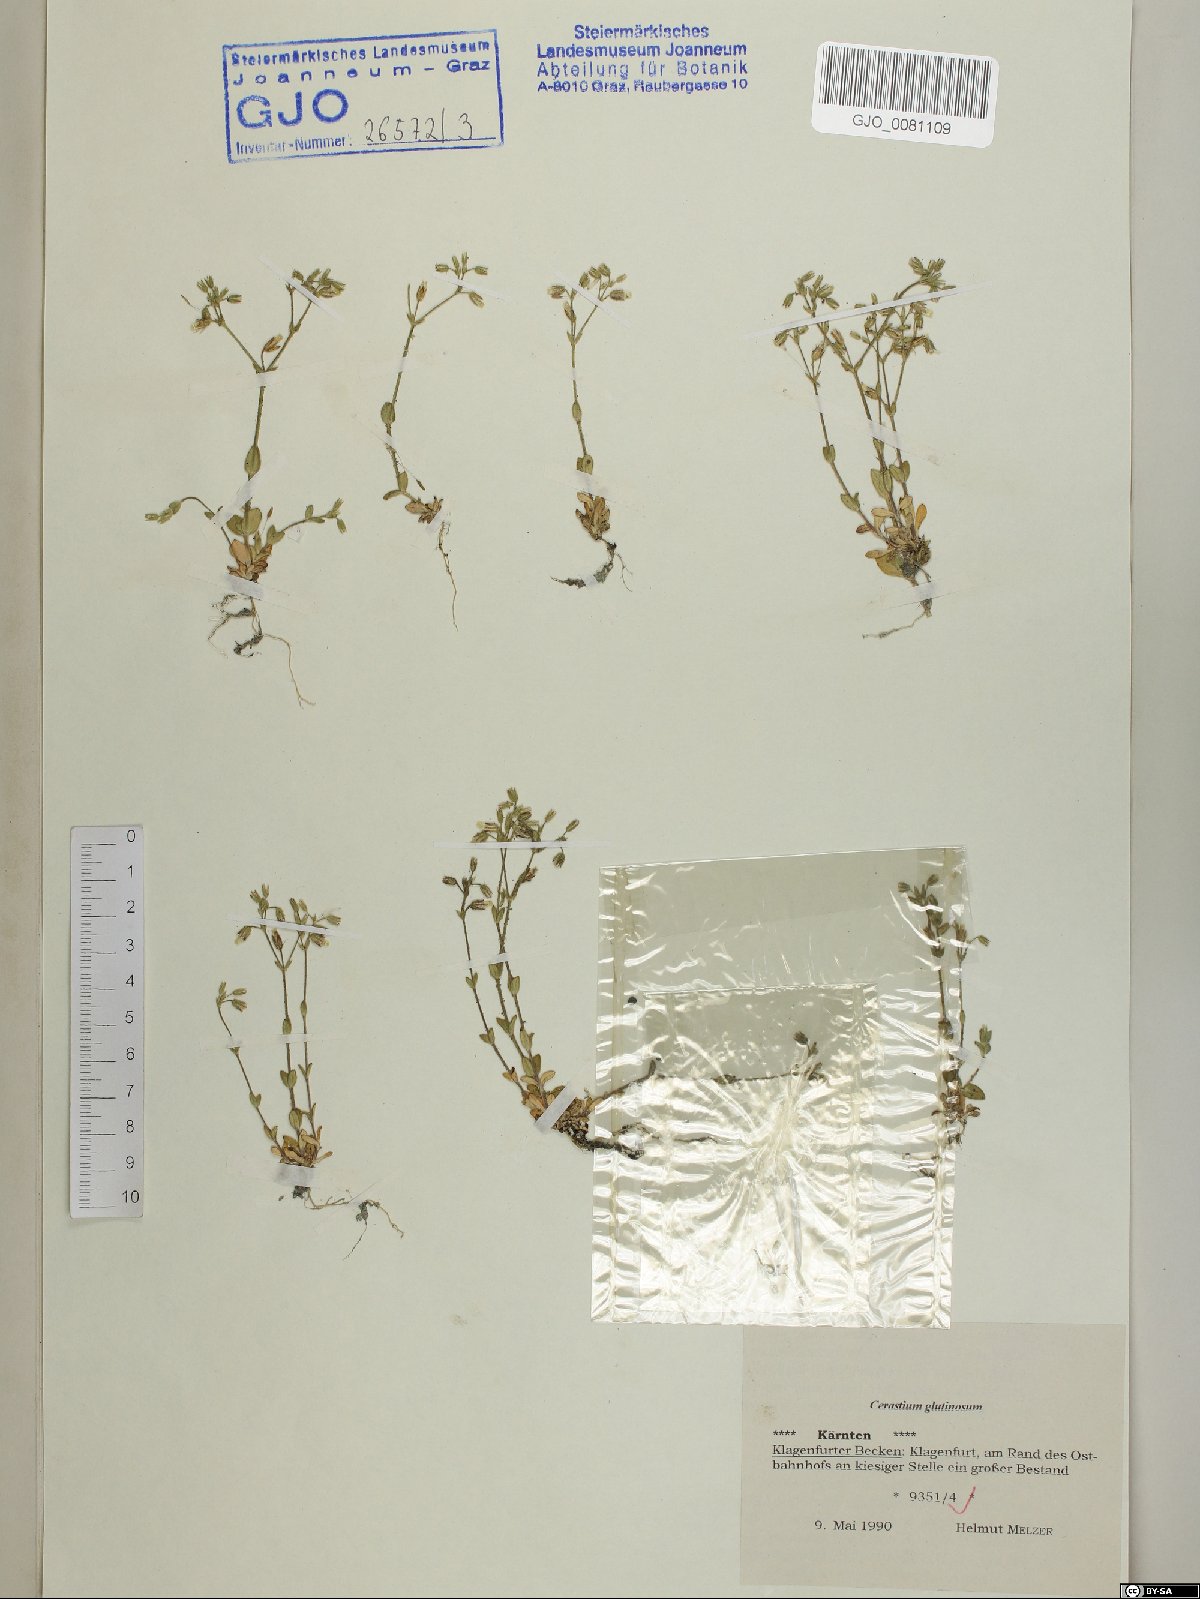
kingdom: Plantae
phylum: Tracheophyta
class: Magnoliopsida
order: Caryophyllales
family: Caryophyllaceae
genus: Cerastium
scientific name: Cerastium glutinosum
